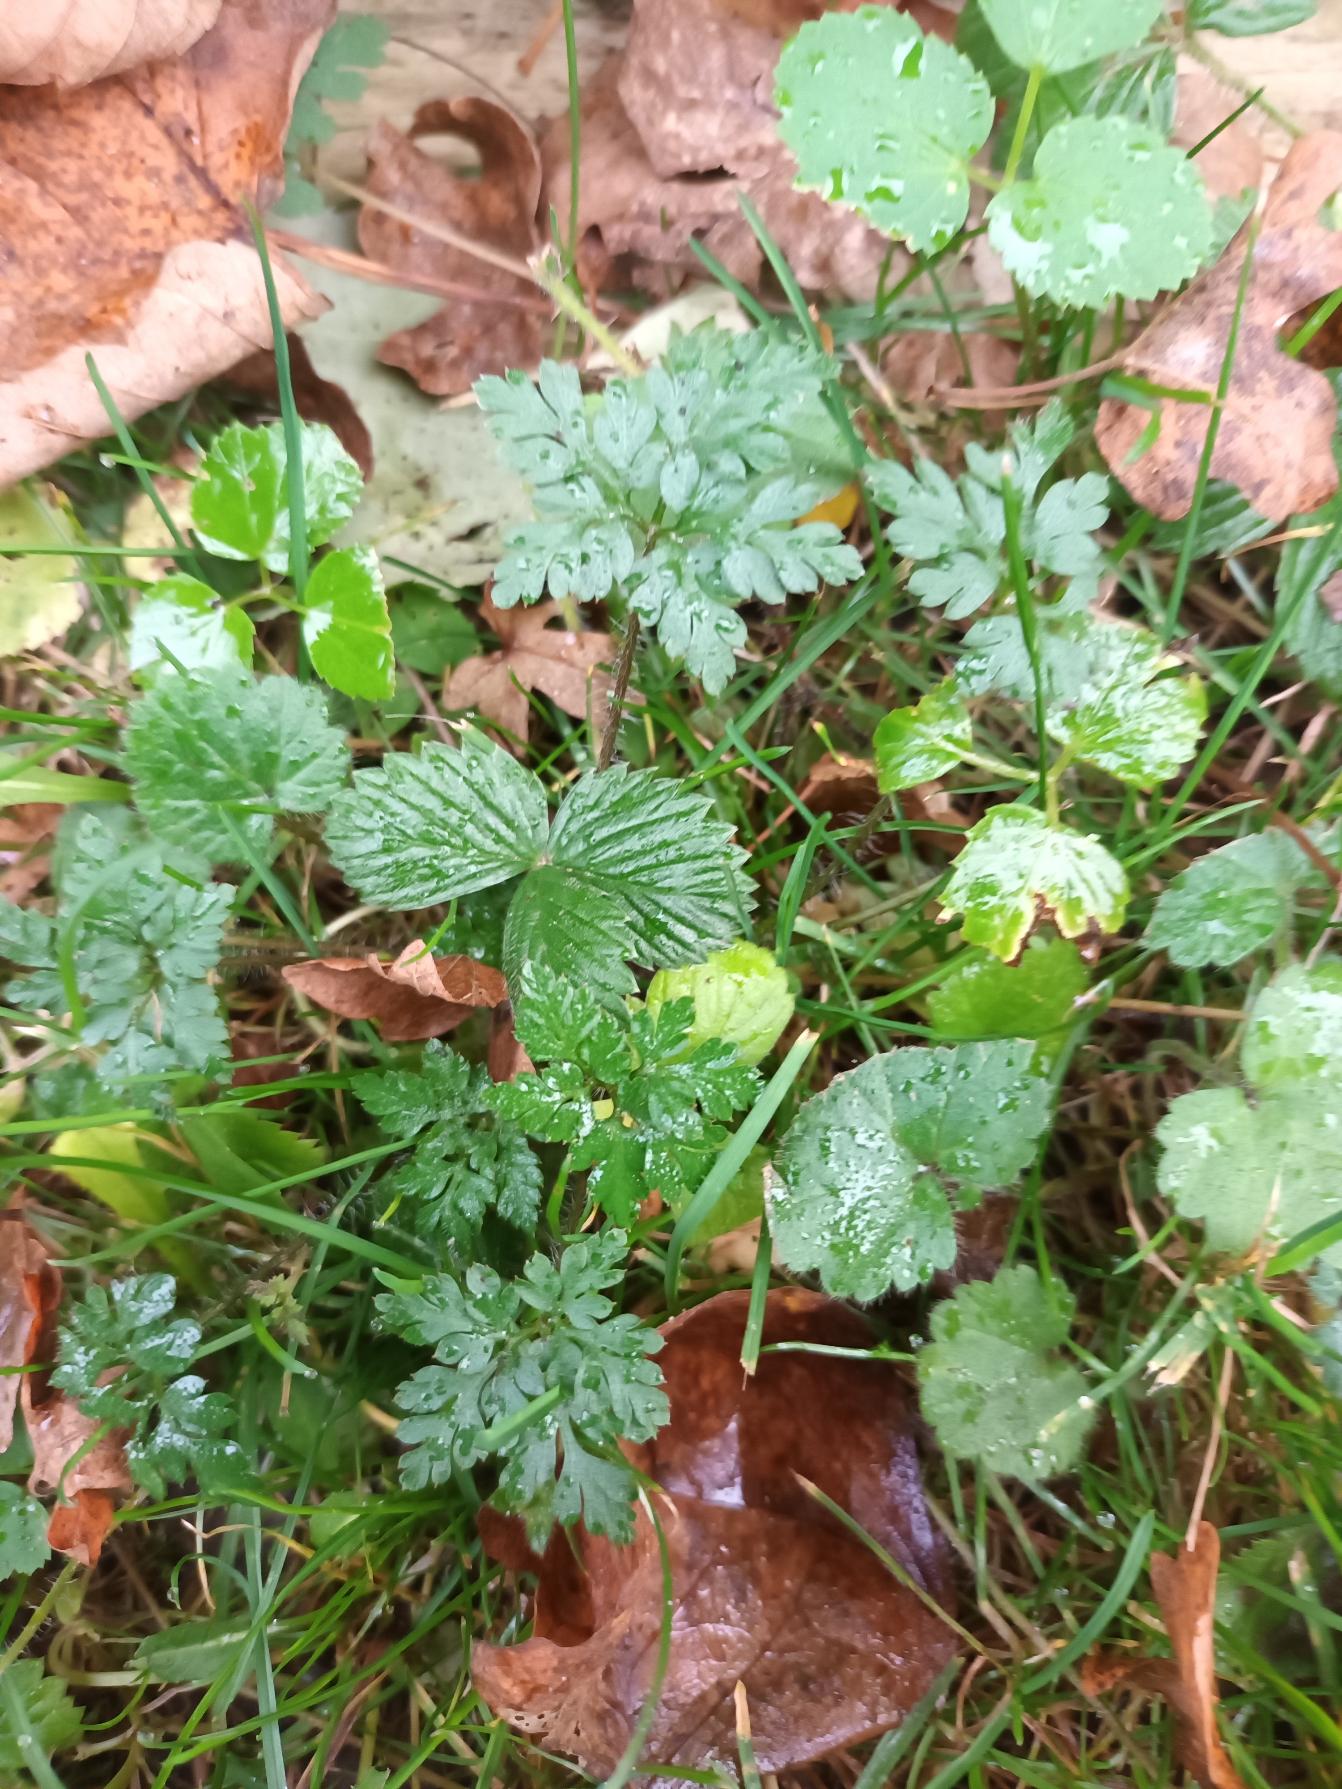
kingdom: Plantae
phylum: Tracheophyta
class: Magnoliopsida
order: Geraniales
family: Geraniaceae
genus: Geranium
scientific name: Geranium robertianum
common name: Stinkende storkenæb
